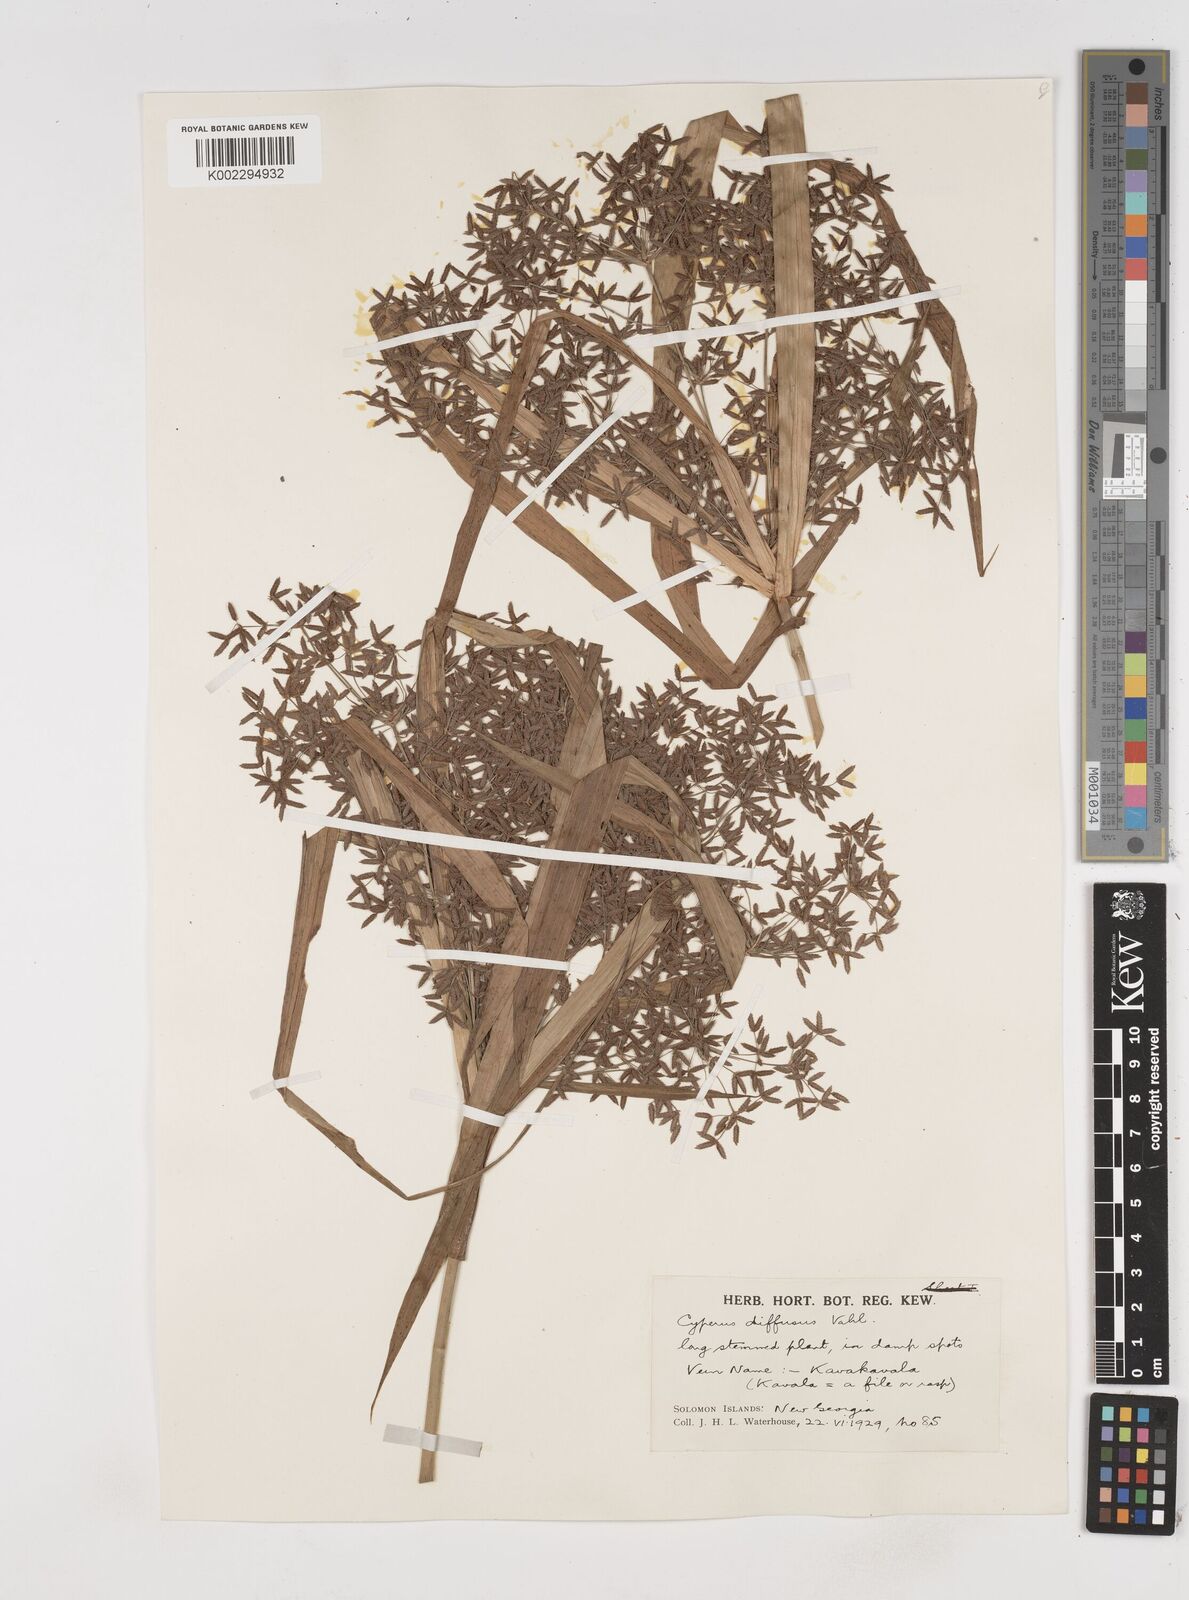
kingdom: Plantae
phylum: Tracheophyta
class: Liliopsida
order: Poales
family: Cyperaceae
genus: Cyperus
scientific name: Cyperus diffusus
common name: Dwarf umbrella grass
